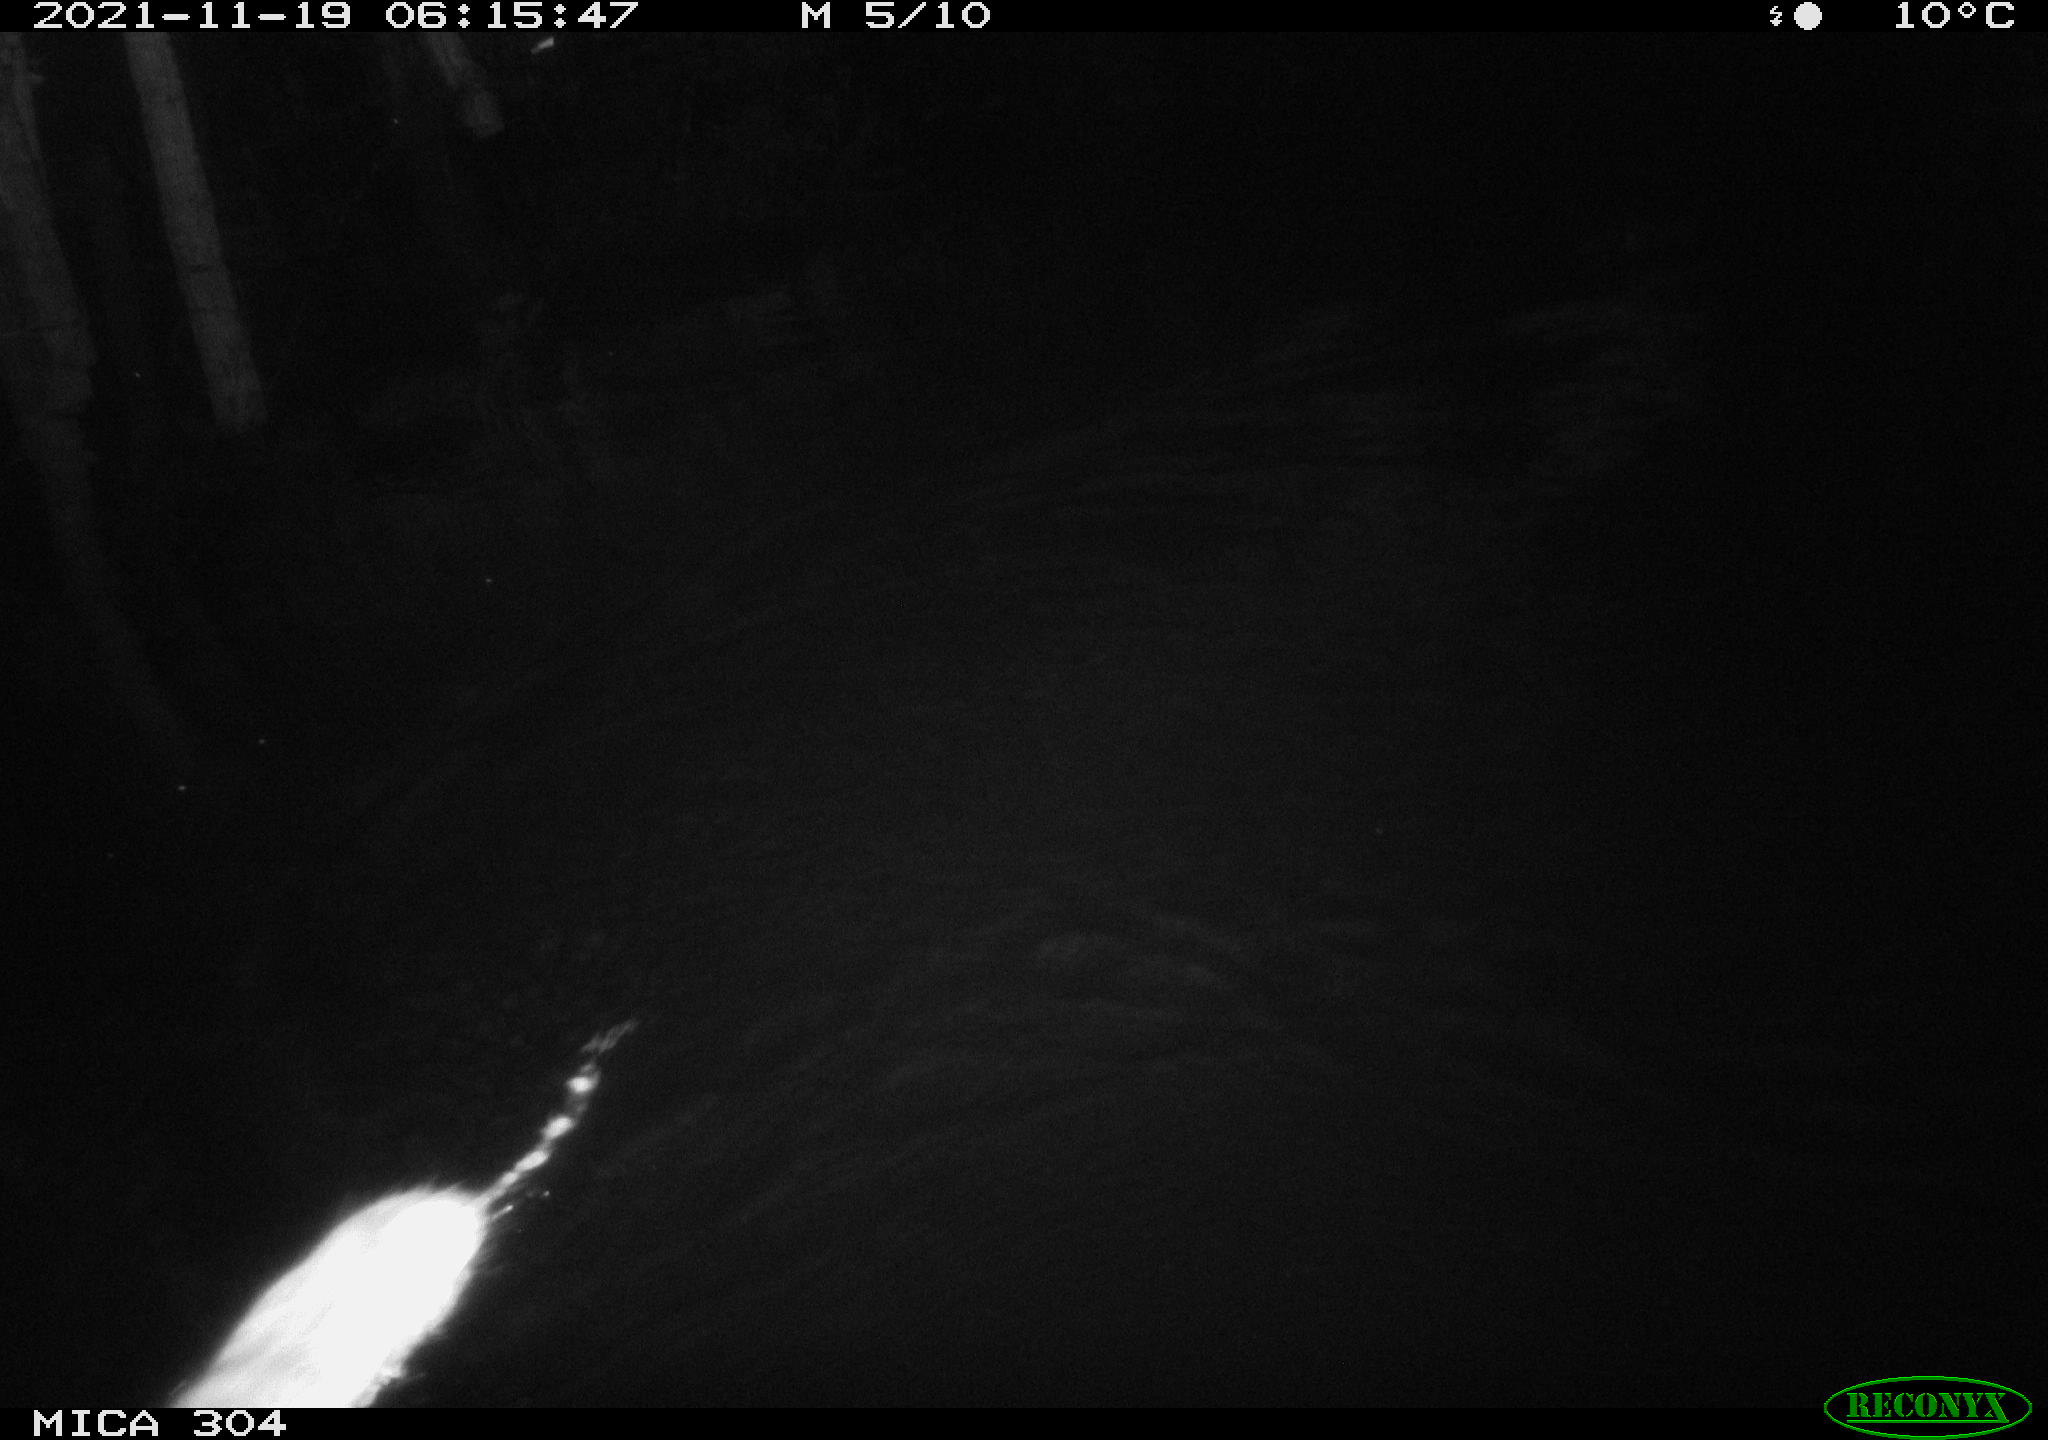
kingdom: Animalia
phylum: Chordata
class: Mammalia
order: Rodentia
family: Muridae
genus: Rattus
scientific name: Rattus norvegicus
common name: Brown rat
